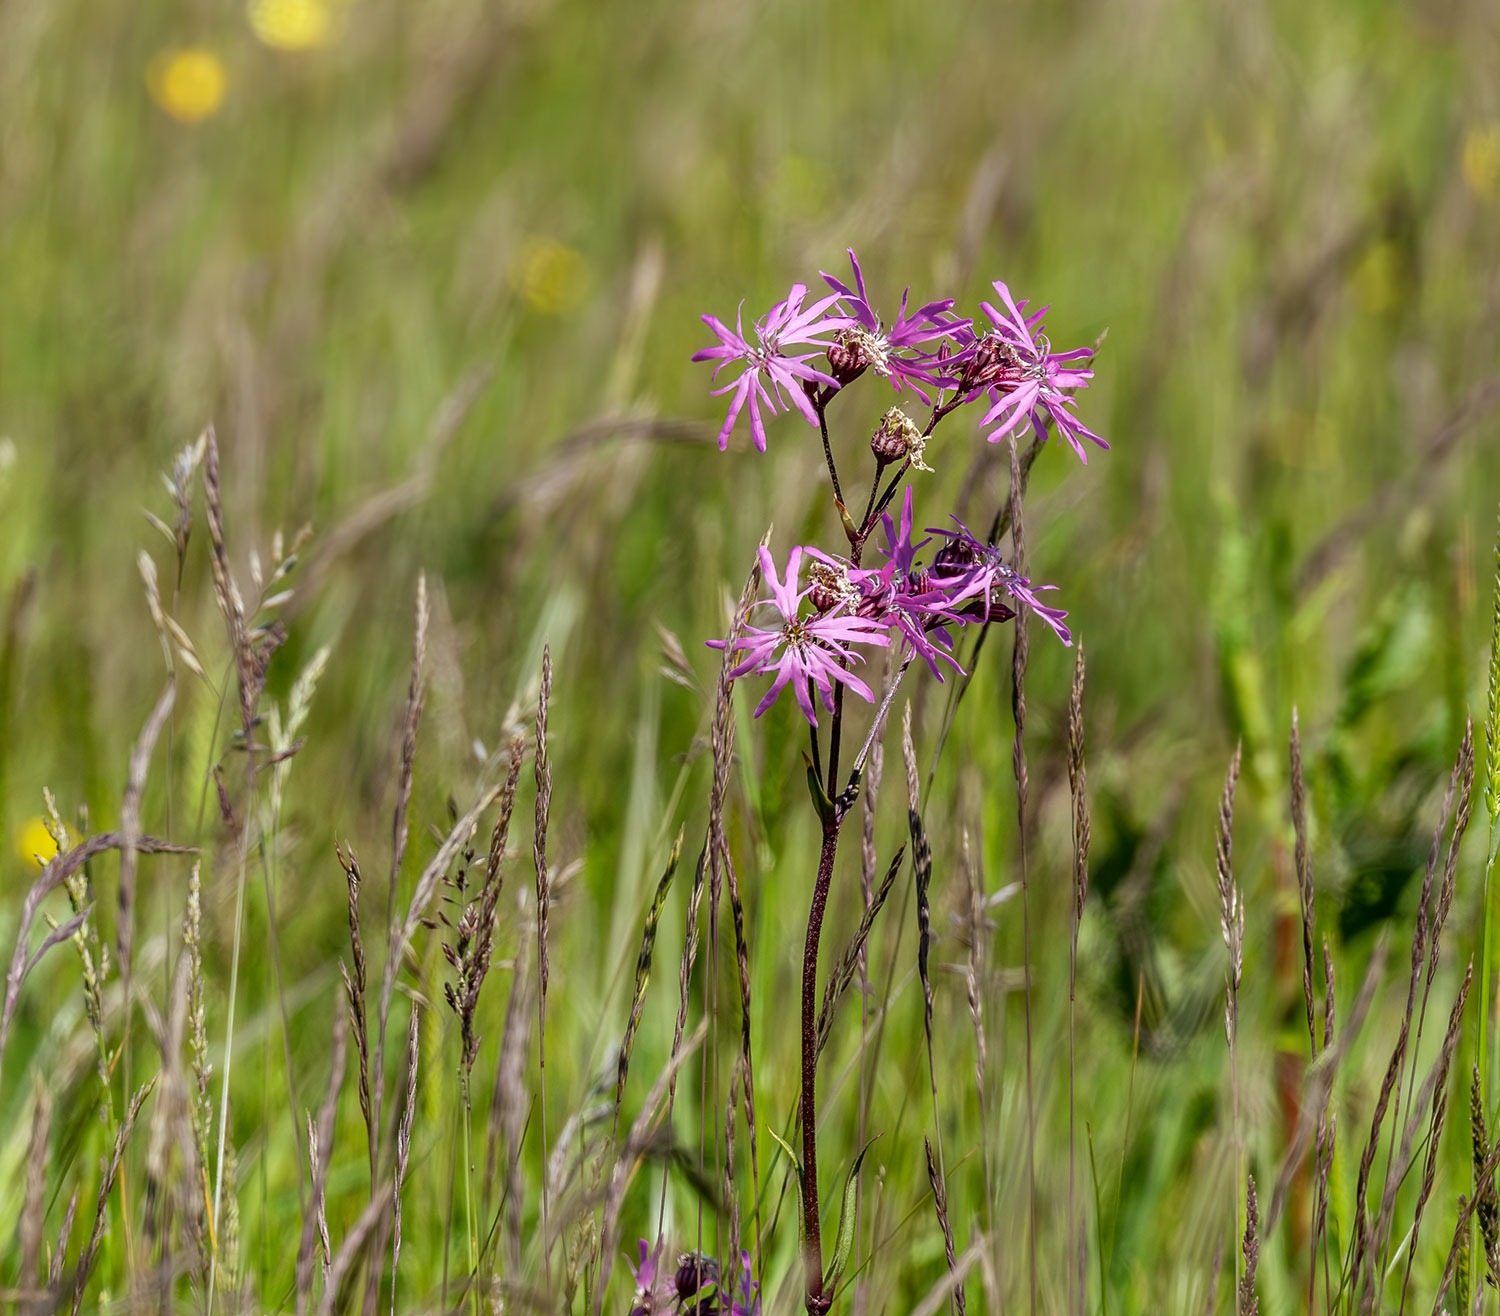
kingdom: Plantae
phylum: Tracheophyta
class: Magnoliopsida
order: Caryophyllales
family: Caryophyllaceae
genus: Silene
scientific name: Silene flos-cuculi
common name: Trævlekrone
